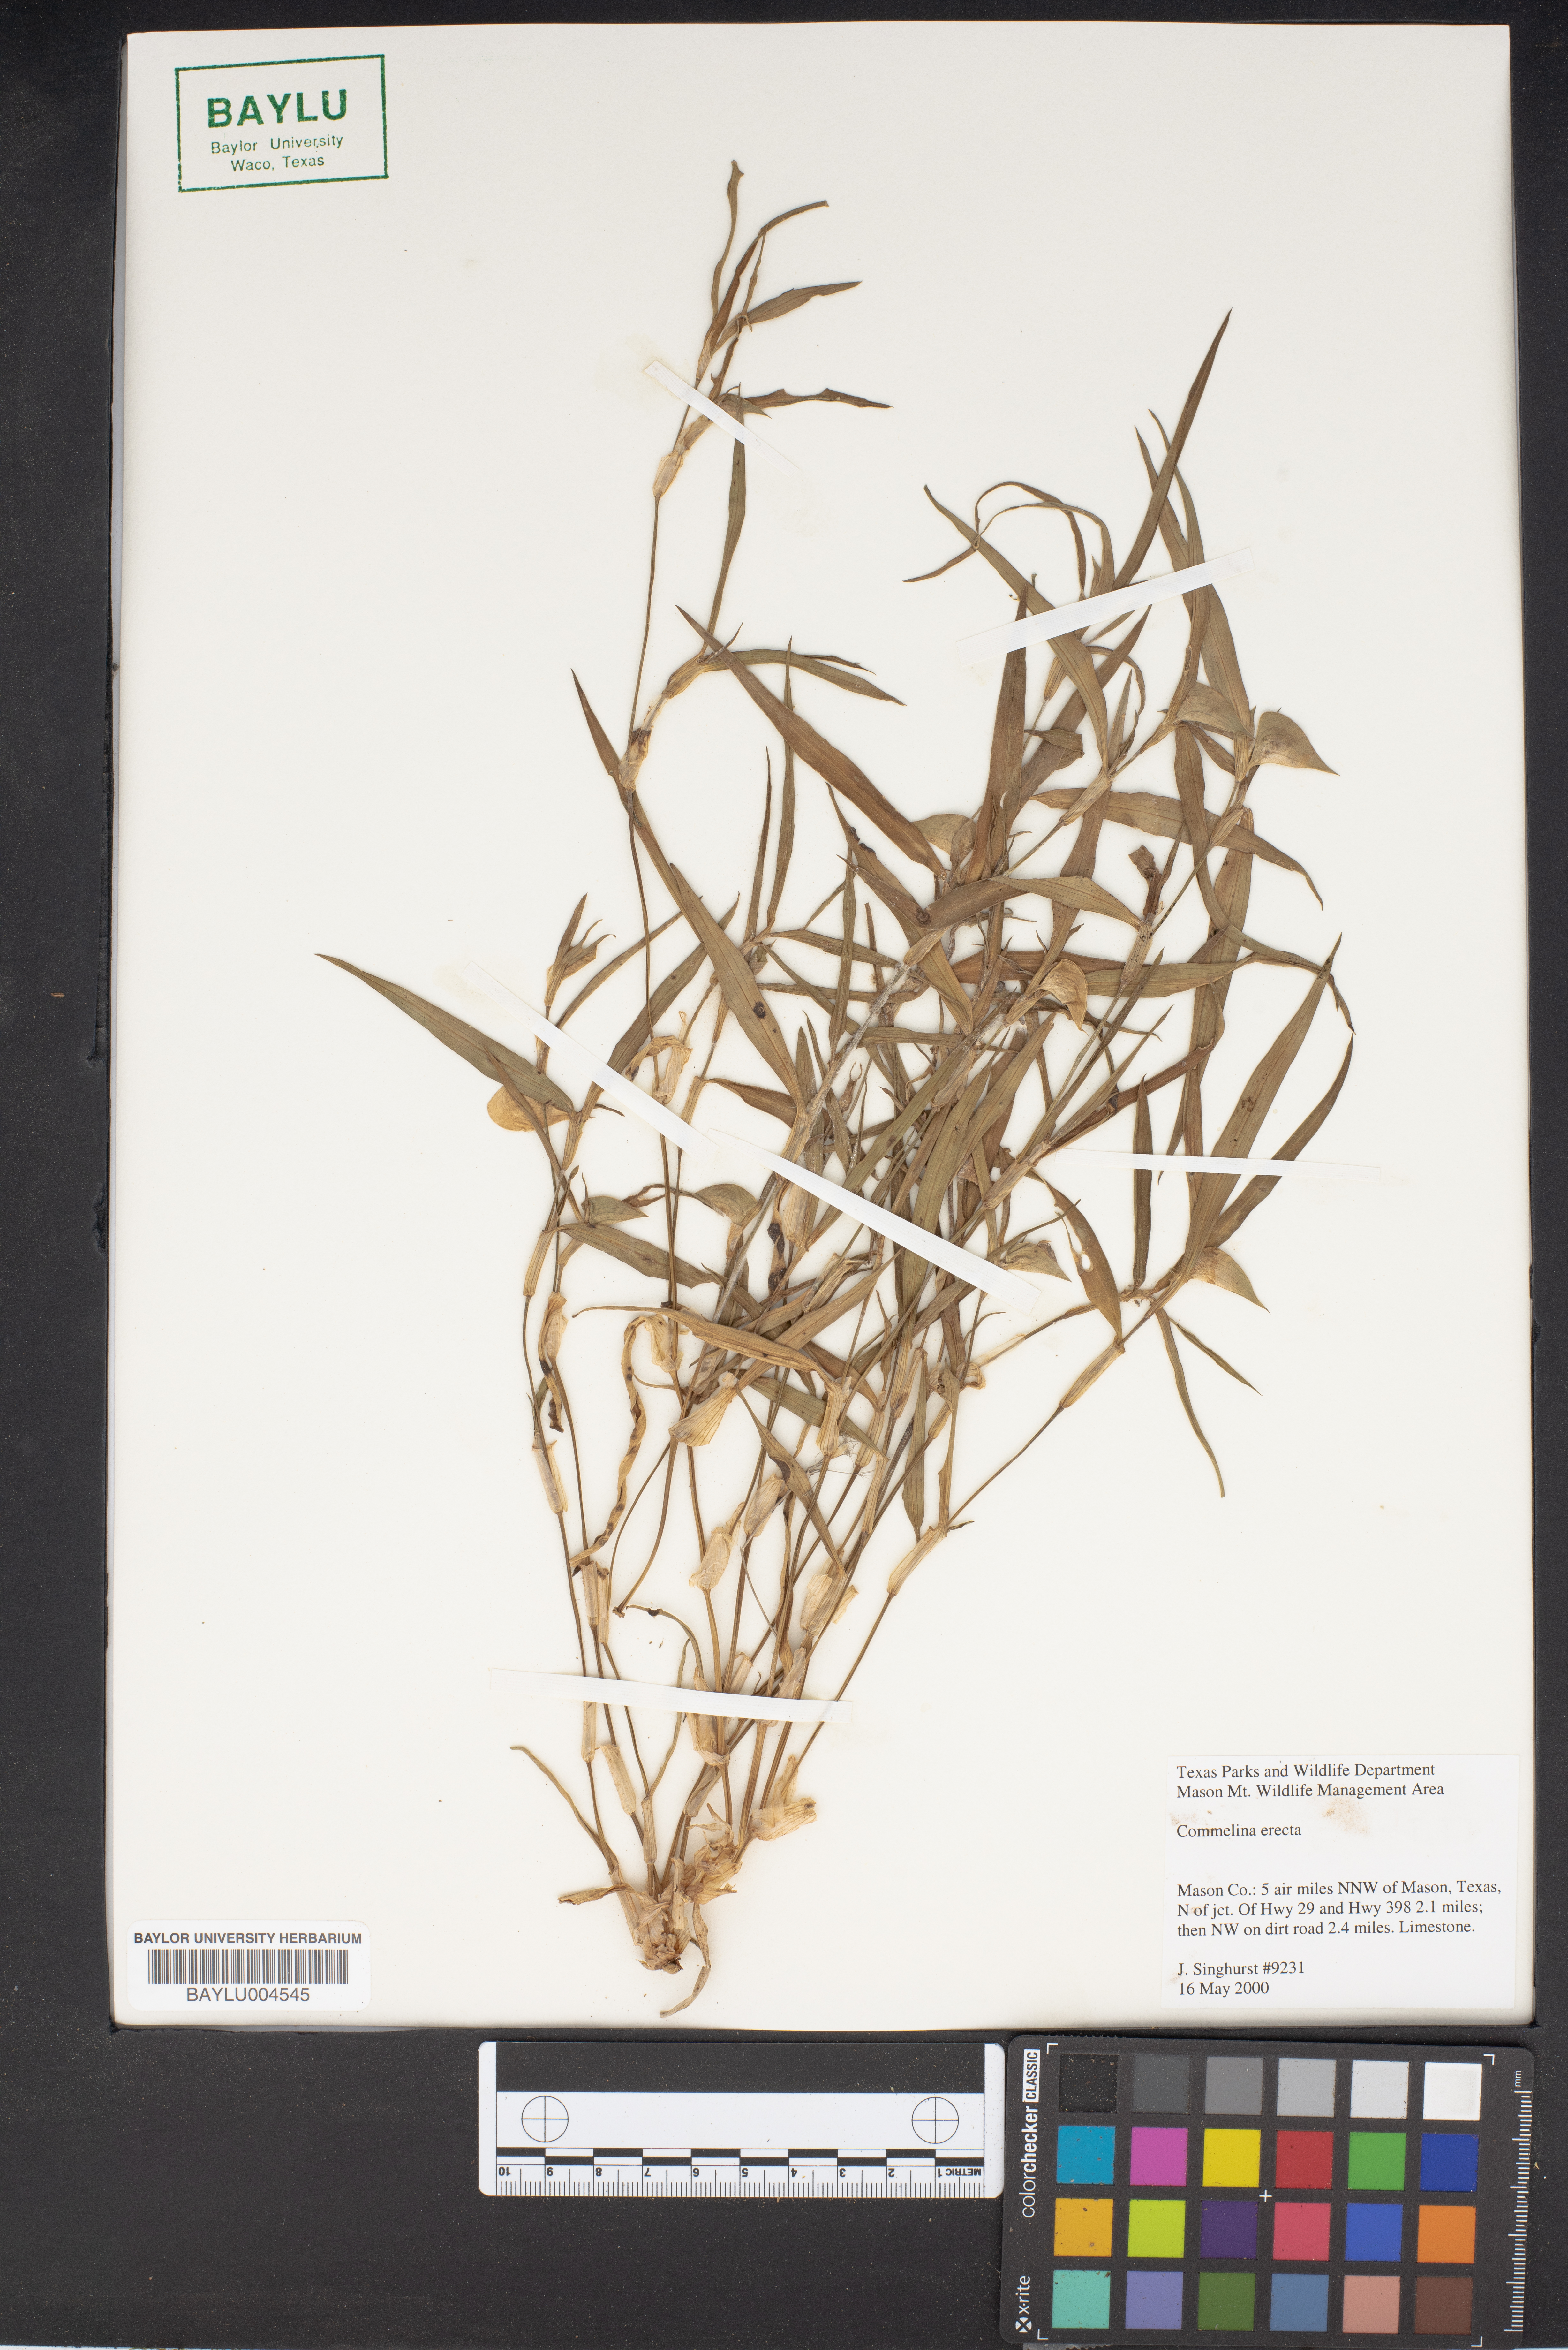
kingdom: Plantae
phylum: Tracheophyta
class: Liliopsida
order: Commelinales
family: Commelinaceae
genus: Commelina
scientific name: Commelina erecta
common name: Blousel blommetjie
